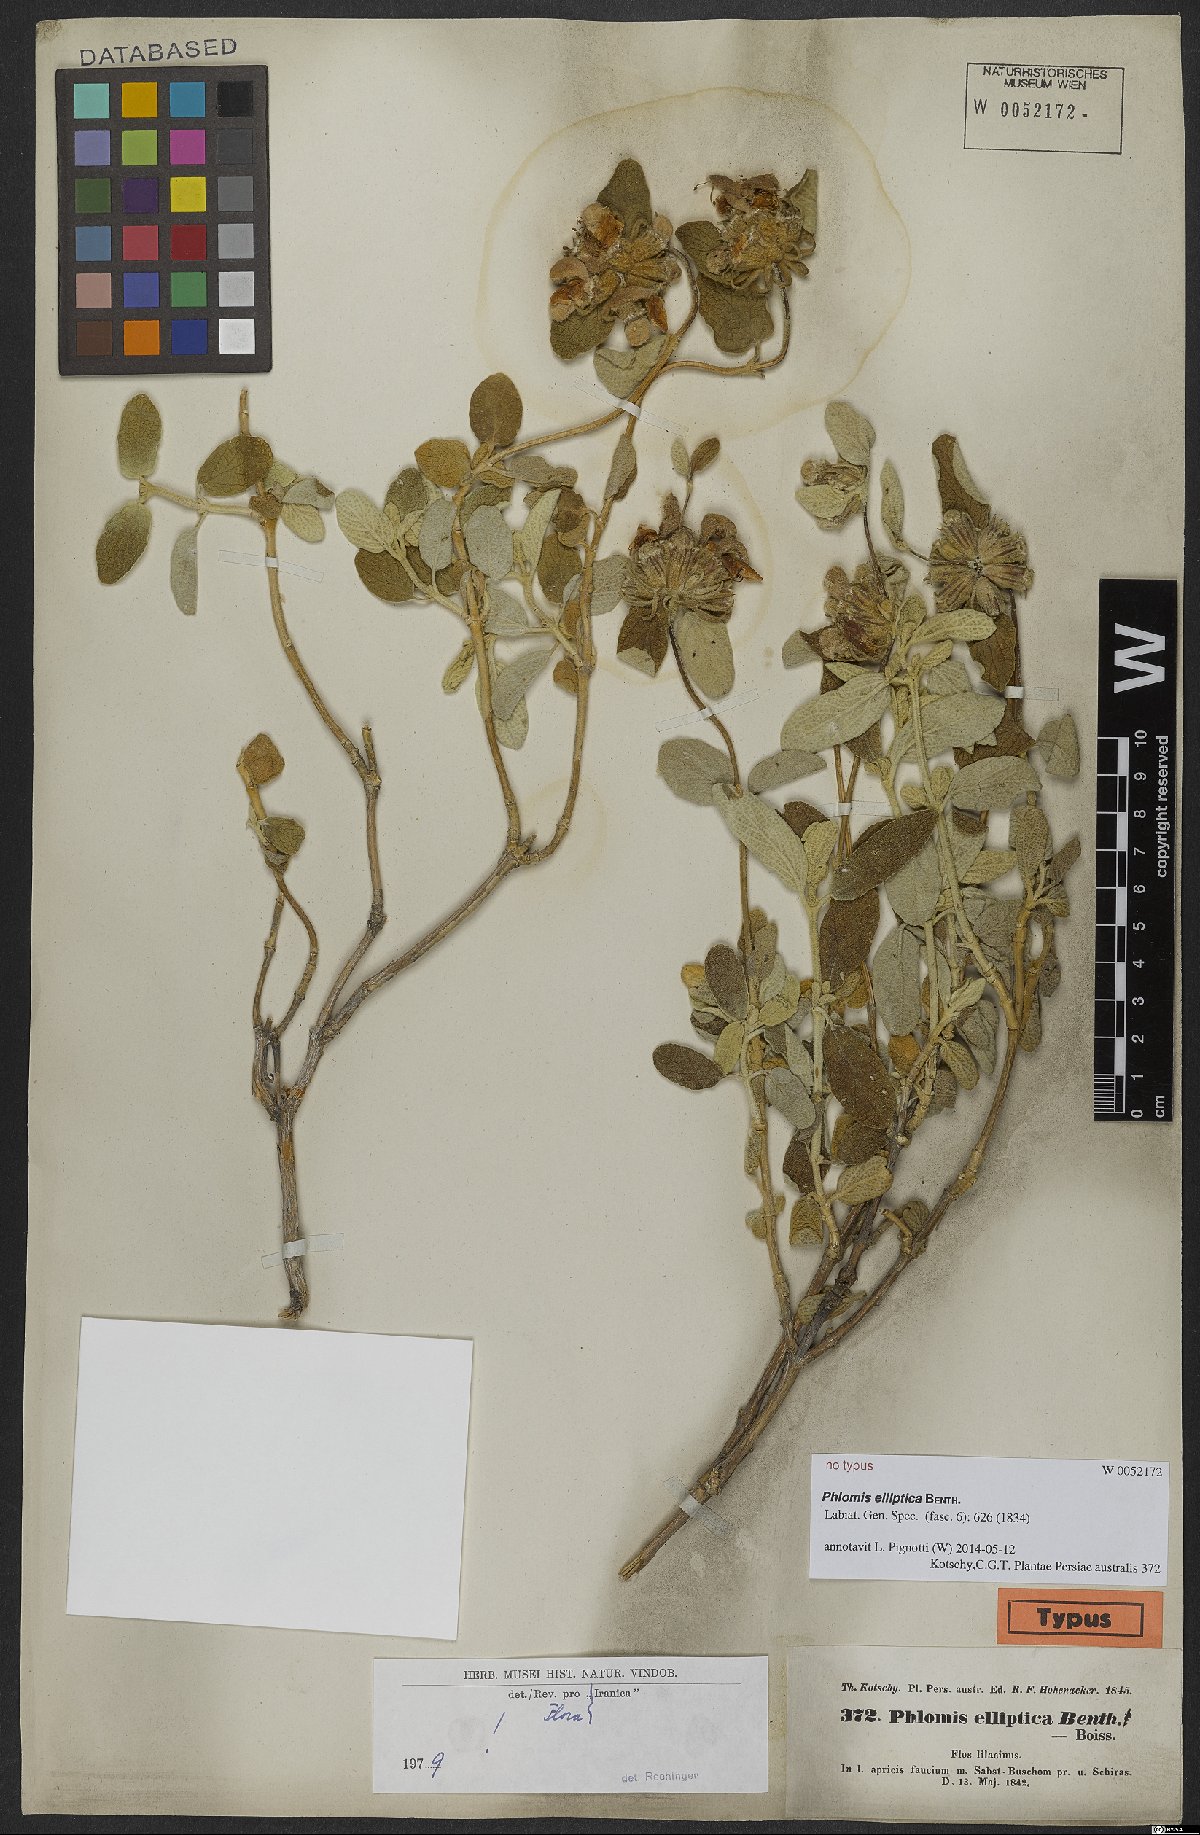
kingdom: Plantae
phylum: Tracheophyta
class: Magnoliopsida
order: Lamiales
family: Lamiaceae
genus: Phlomis
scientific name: Phlomis elliptica
